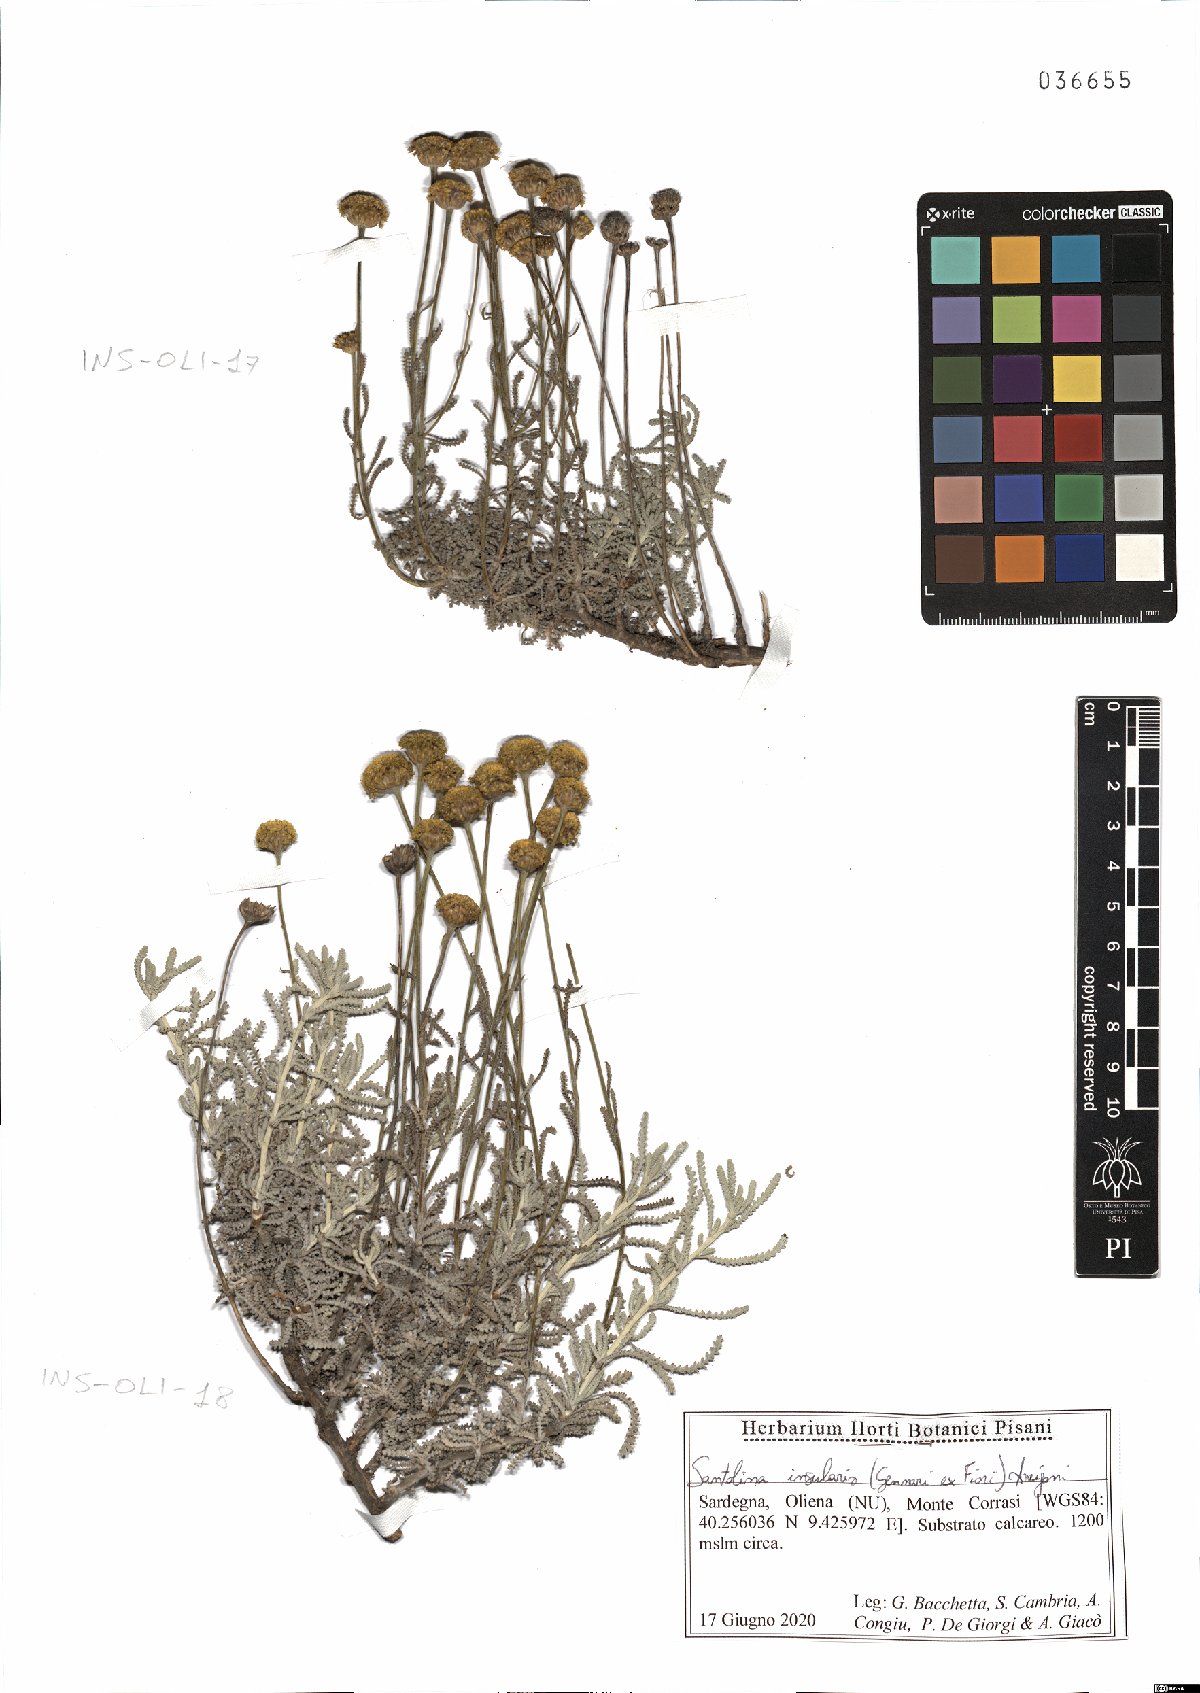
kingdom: Plantae
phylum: Tracheophyta
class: Magnoliopsida
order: Asterales
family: Asteraceae
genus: Santolina
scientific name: Santolina insularis
